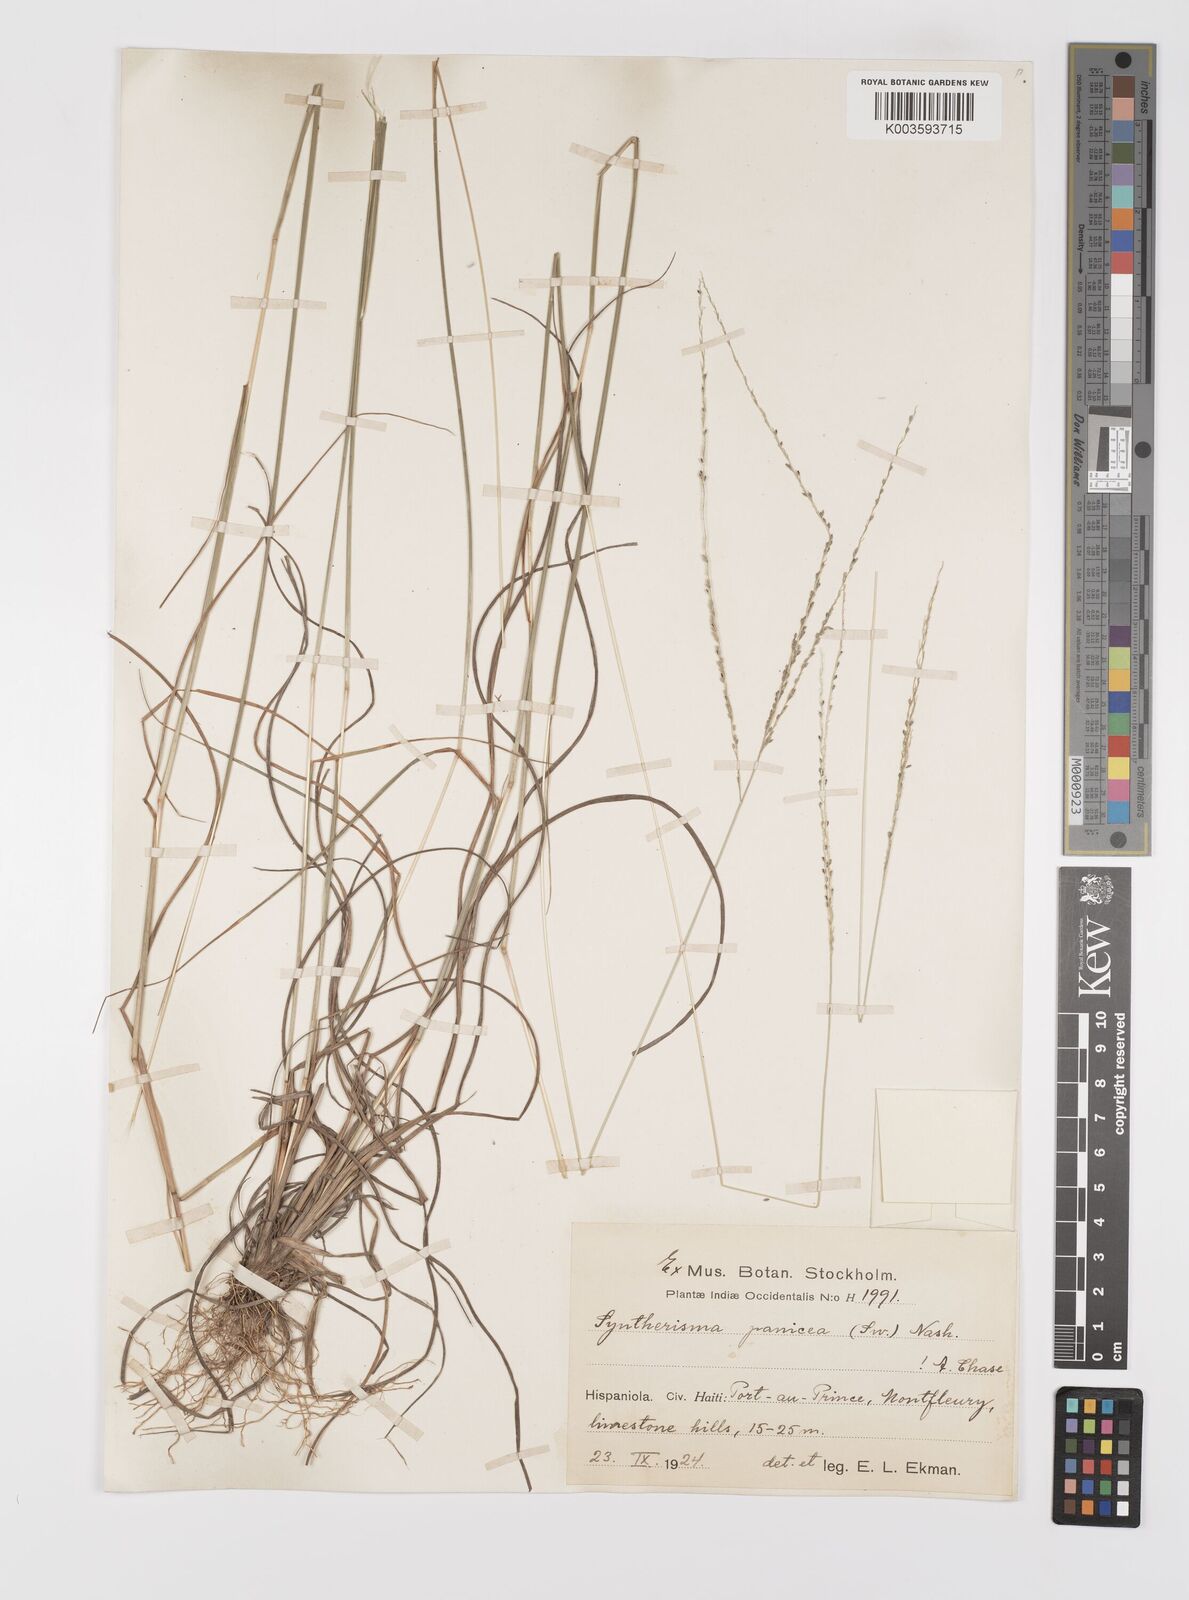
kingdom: Plantae
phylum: Tracheophyta
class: Liliopsida
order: Poales
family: Poaceae
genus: Digitaria
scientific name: Digitaria villosa
